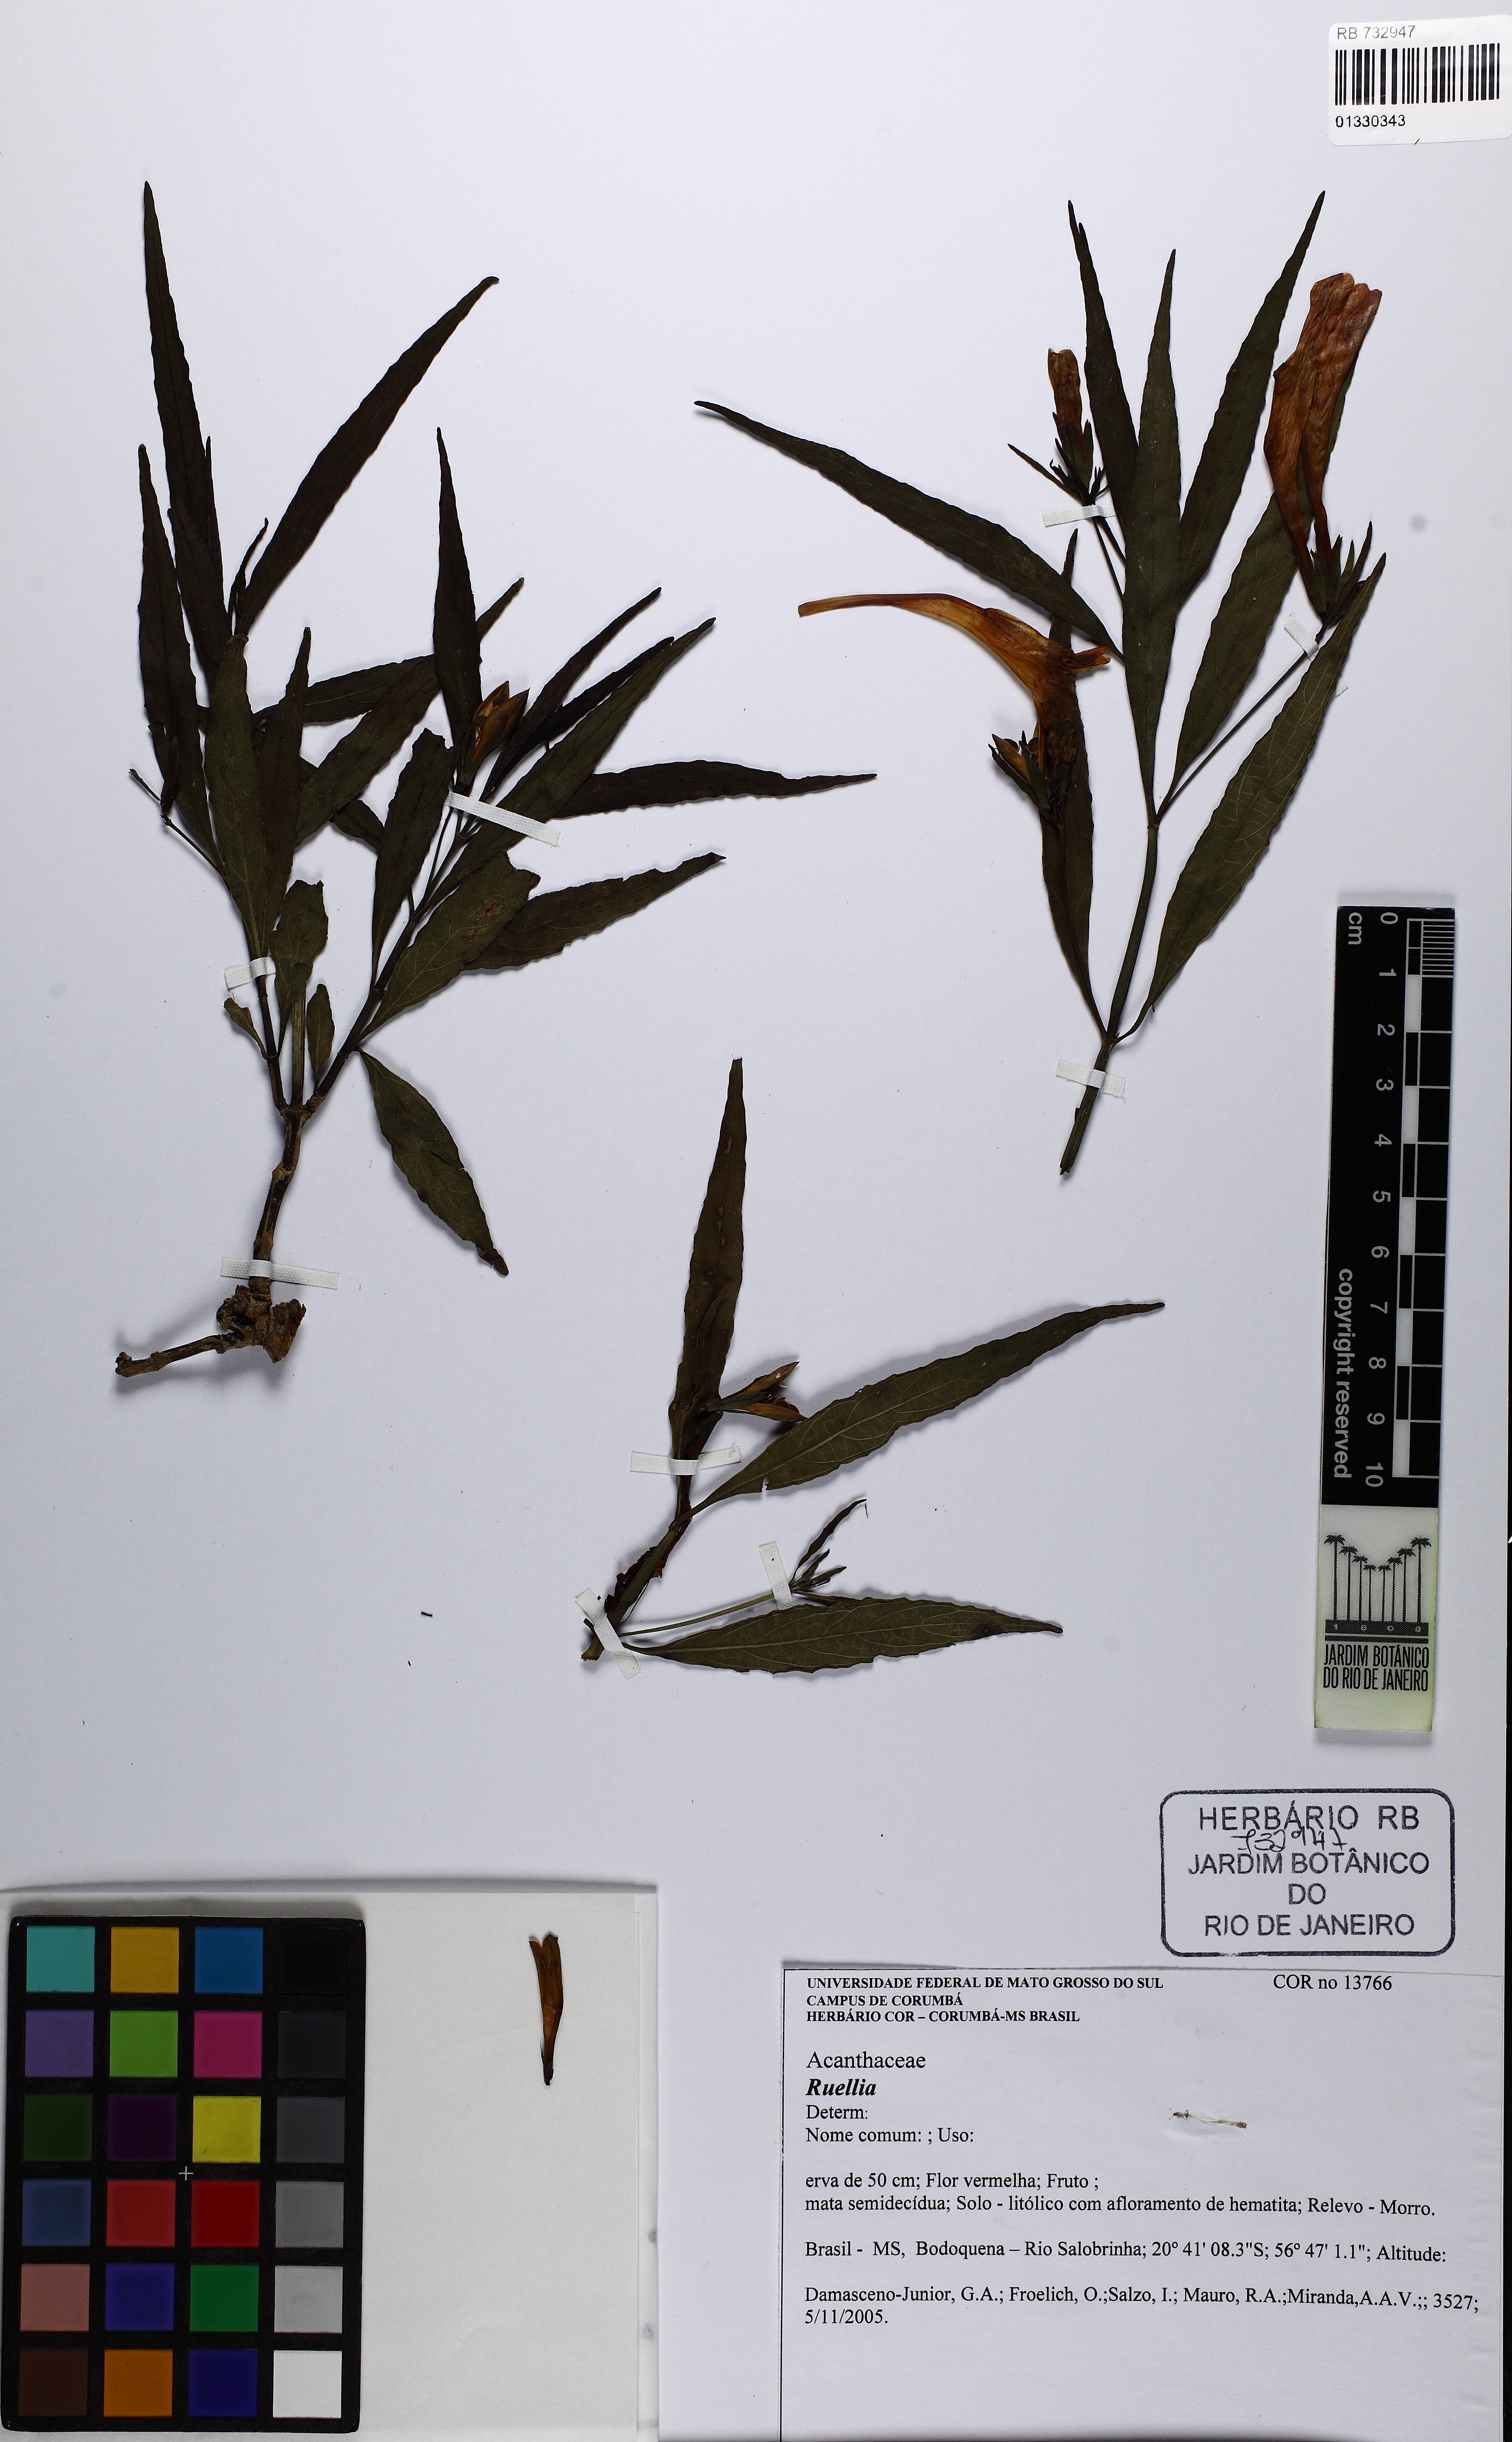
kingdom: Plantae
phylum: Tracheophyta
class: Magnoliopsida
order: Lamiales
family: Acanthaceae
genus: Ruellia
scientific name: Ruellia
